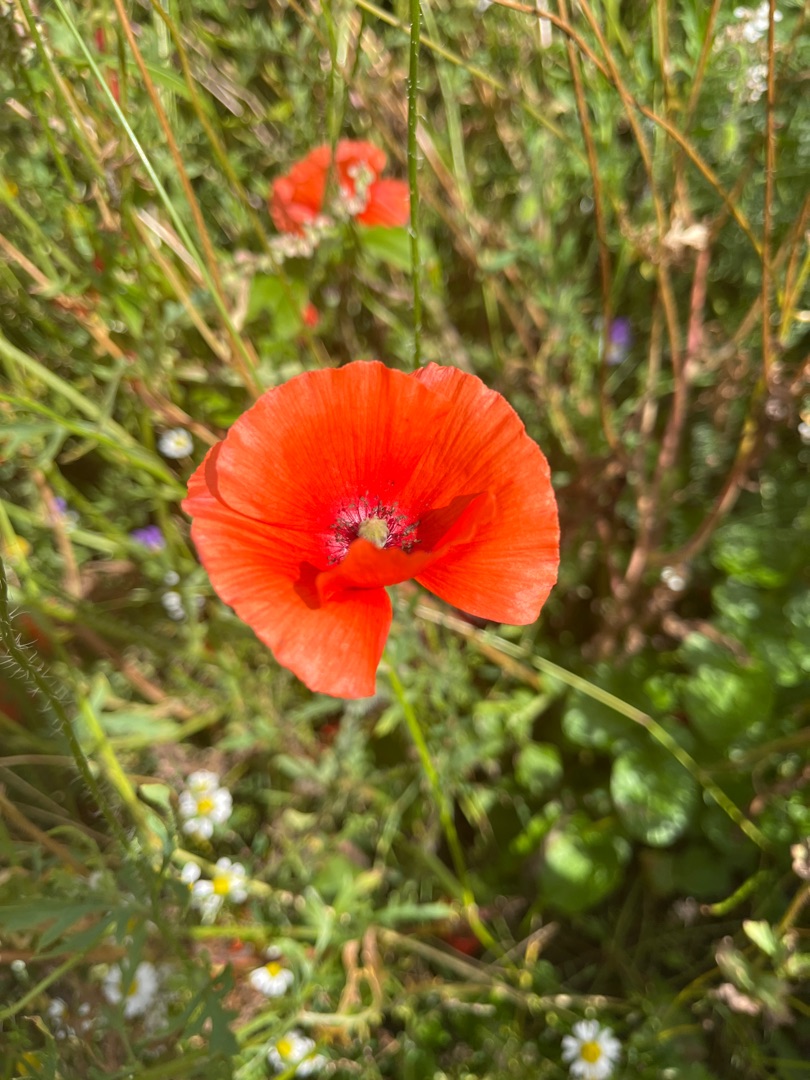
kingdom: Plantae
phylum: Tracheophyta
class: Magnoliopsida
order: Ranunculales
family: Papaveraceae
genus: Papaver
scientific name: Papaver
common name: Valmueslægten
